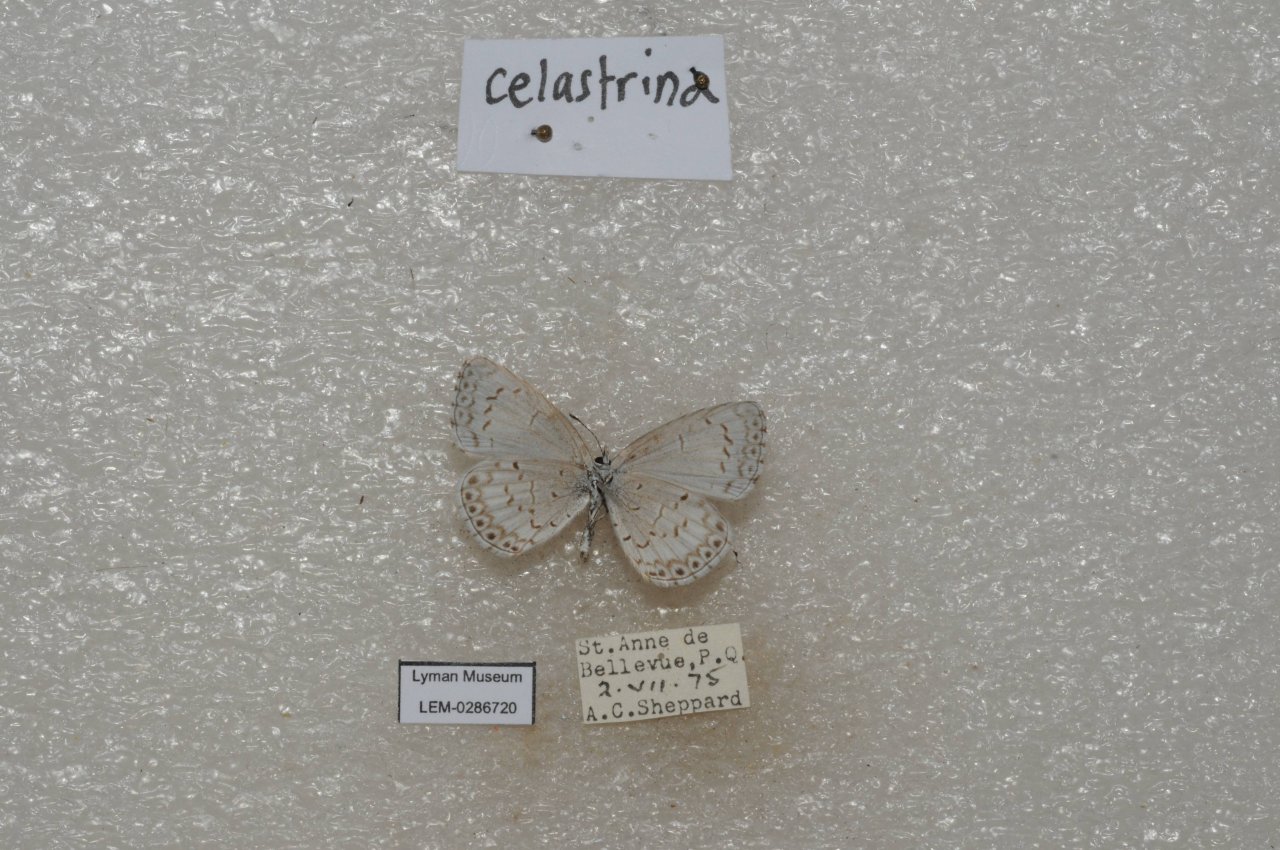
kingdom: Animalia
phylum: Arthropoda
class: Insecta
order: Lepidoptera
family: Lycaenidae
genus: Celastrina
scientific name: Celastrina lucia
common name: Northern Spring Azure
